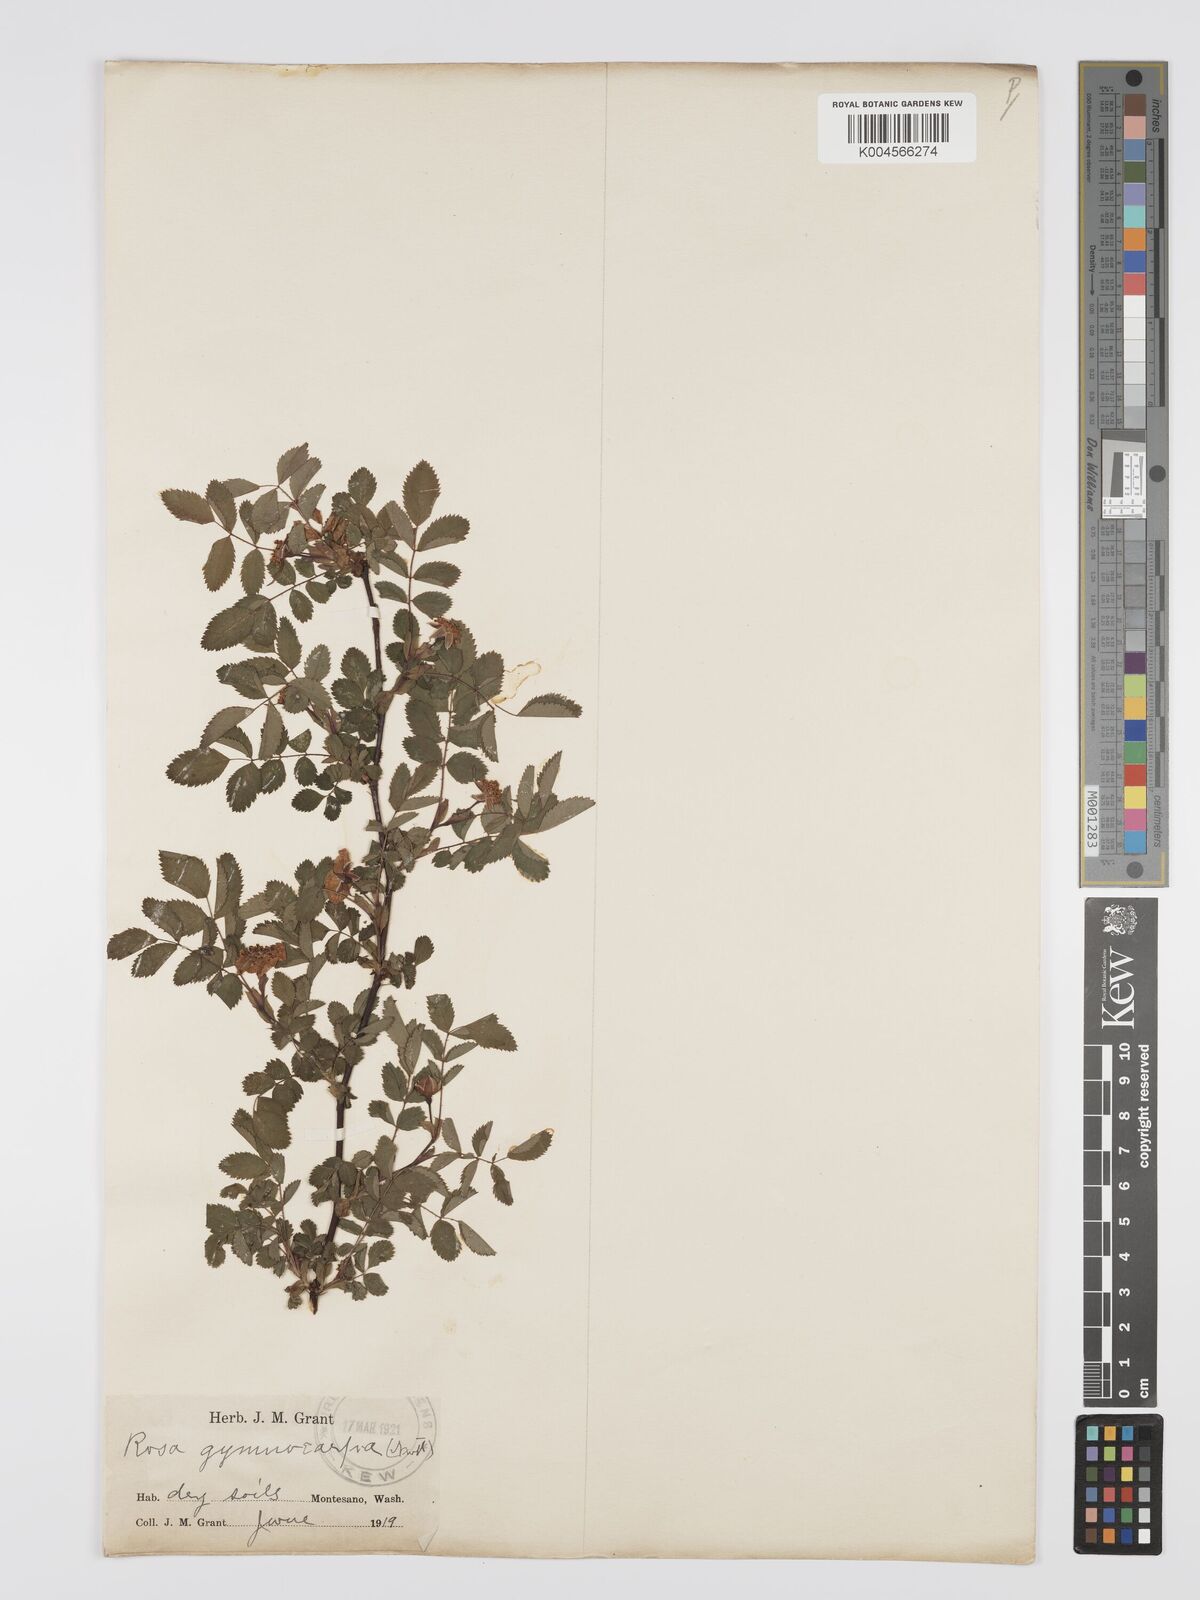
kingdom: Plantae
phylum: Tracheophyta
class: Magnoliopsida
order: Rosales
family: Rosaceae
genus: Rosa
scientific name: Rosa gymnocarpa
